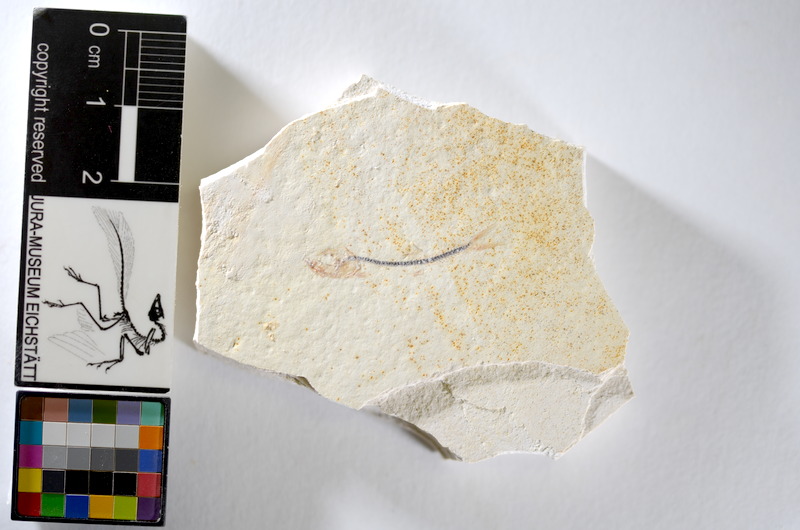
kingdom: Animalia
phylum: Chordata
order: Salmoniformes
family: Orthogonikleithridae
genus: Orthogonikleithrus
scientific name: Orthogonikleithrus hoelli
